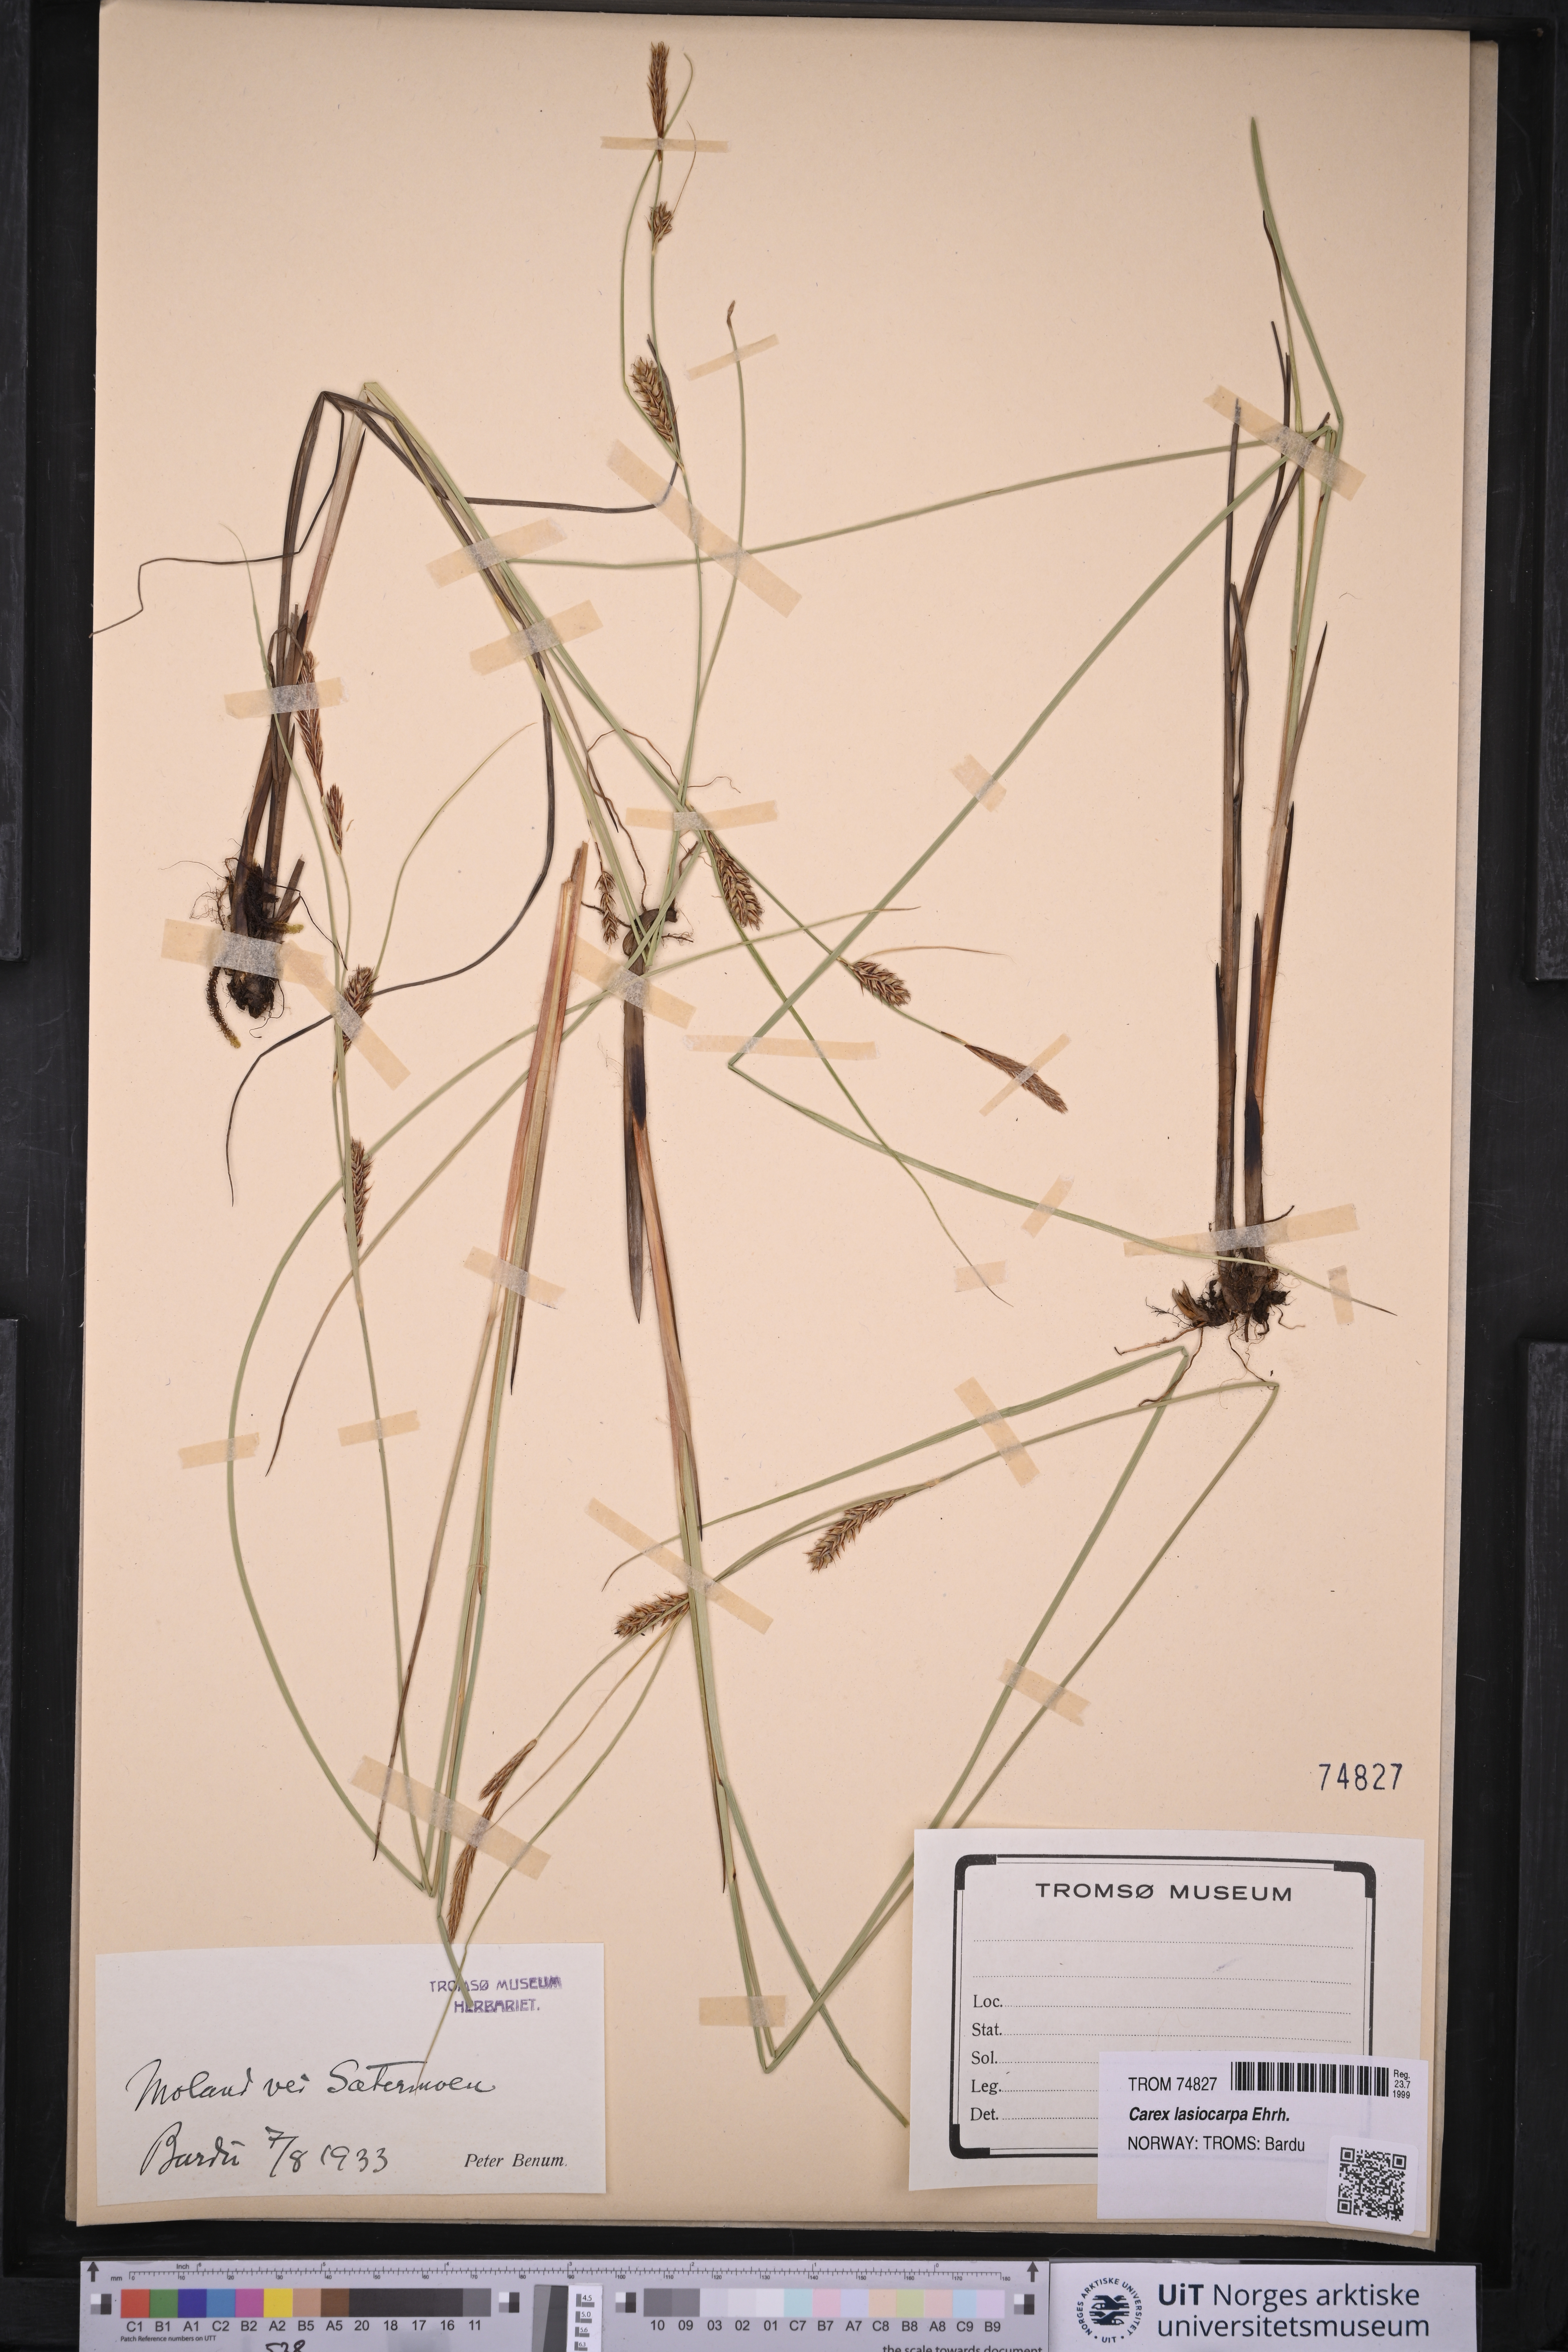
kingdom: Plantae
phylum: Tracheophyta
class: Liliopsida
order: Poales
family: Cyperaceae
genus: Carex
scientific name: Carex lasiocarpa
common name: Slender sedge
